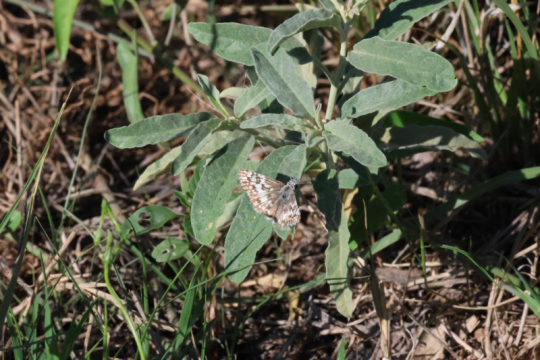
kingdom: Animalia
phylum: Arthropoda
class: Insecta
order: Lepidoptera
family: Hesperiidae
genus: Pyrgus
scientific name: Pyrgus communis
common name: Common Checkered-Skipper
